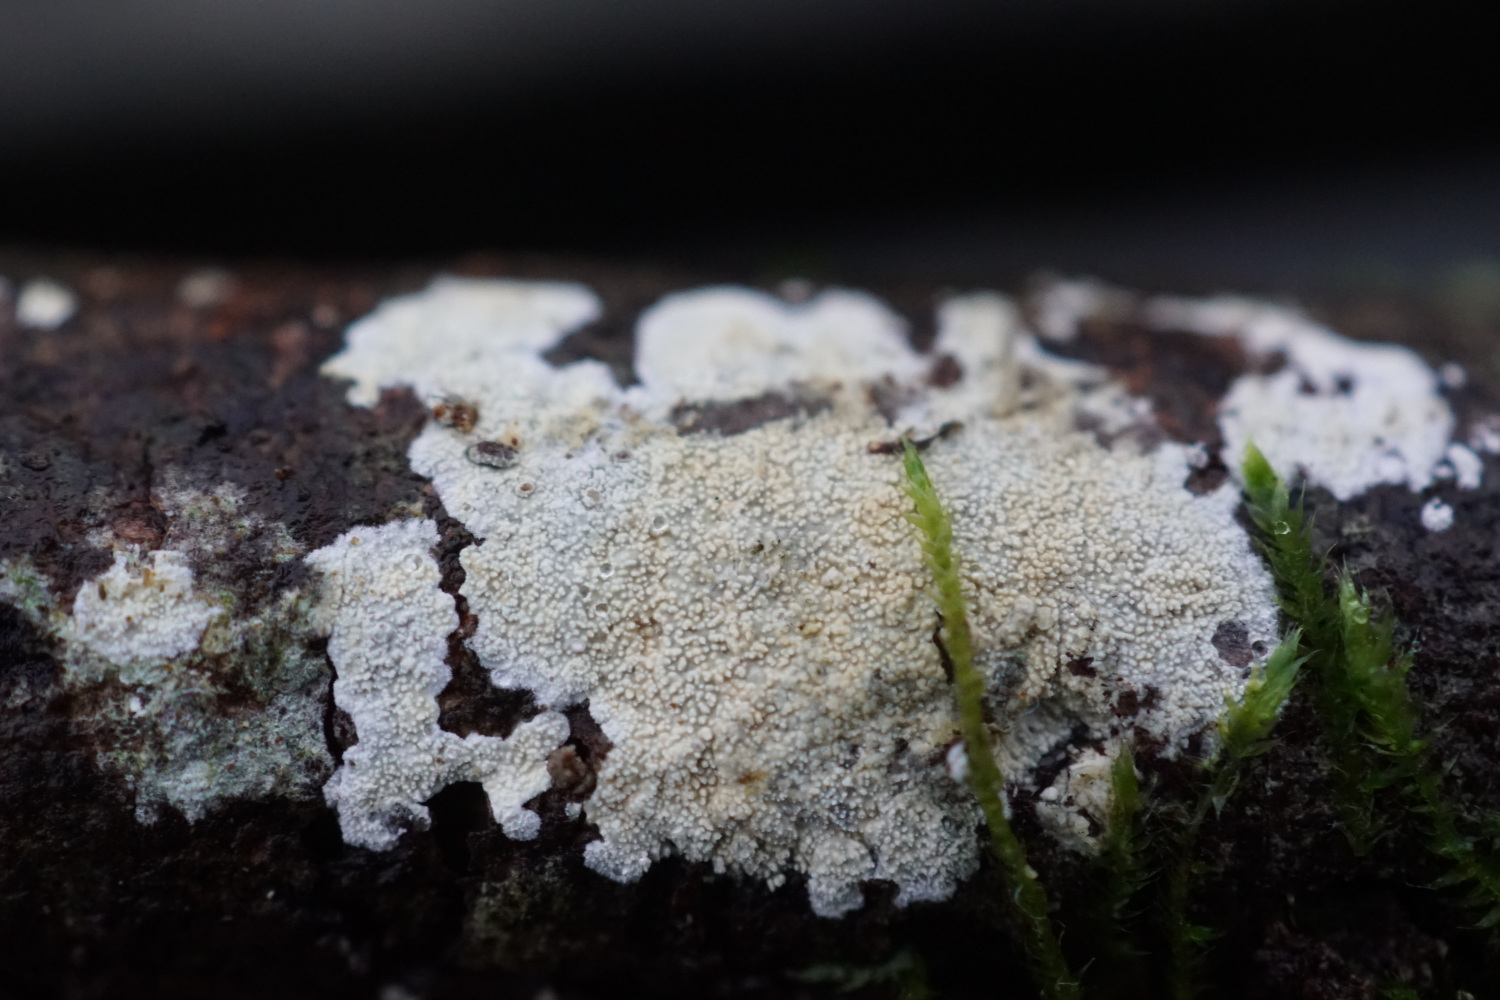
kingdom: Fungi
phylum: Basidiomycota
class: Agaricomycetes
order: Corticiales
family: Corticiaceae
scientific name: Corticiaceae
